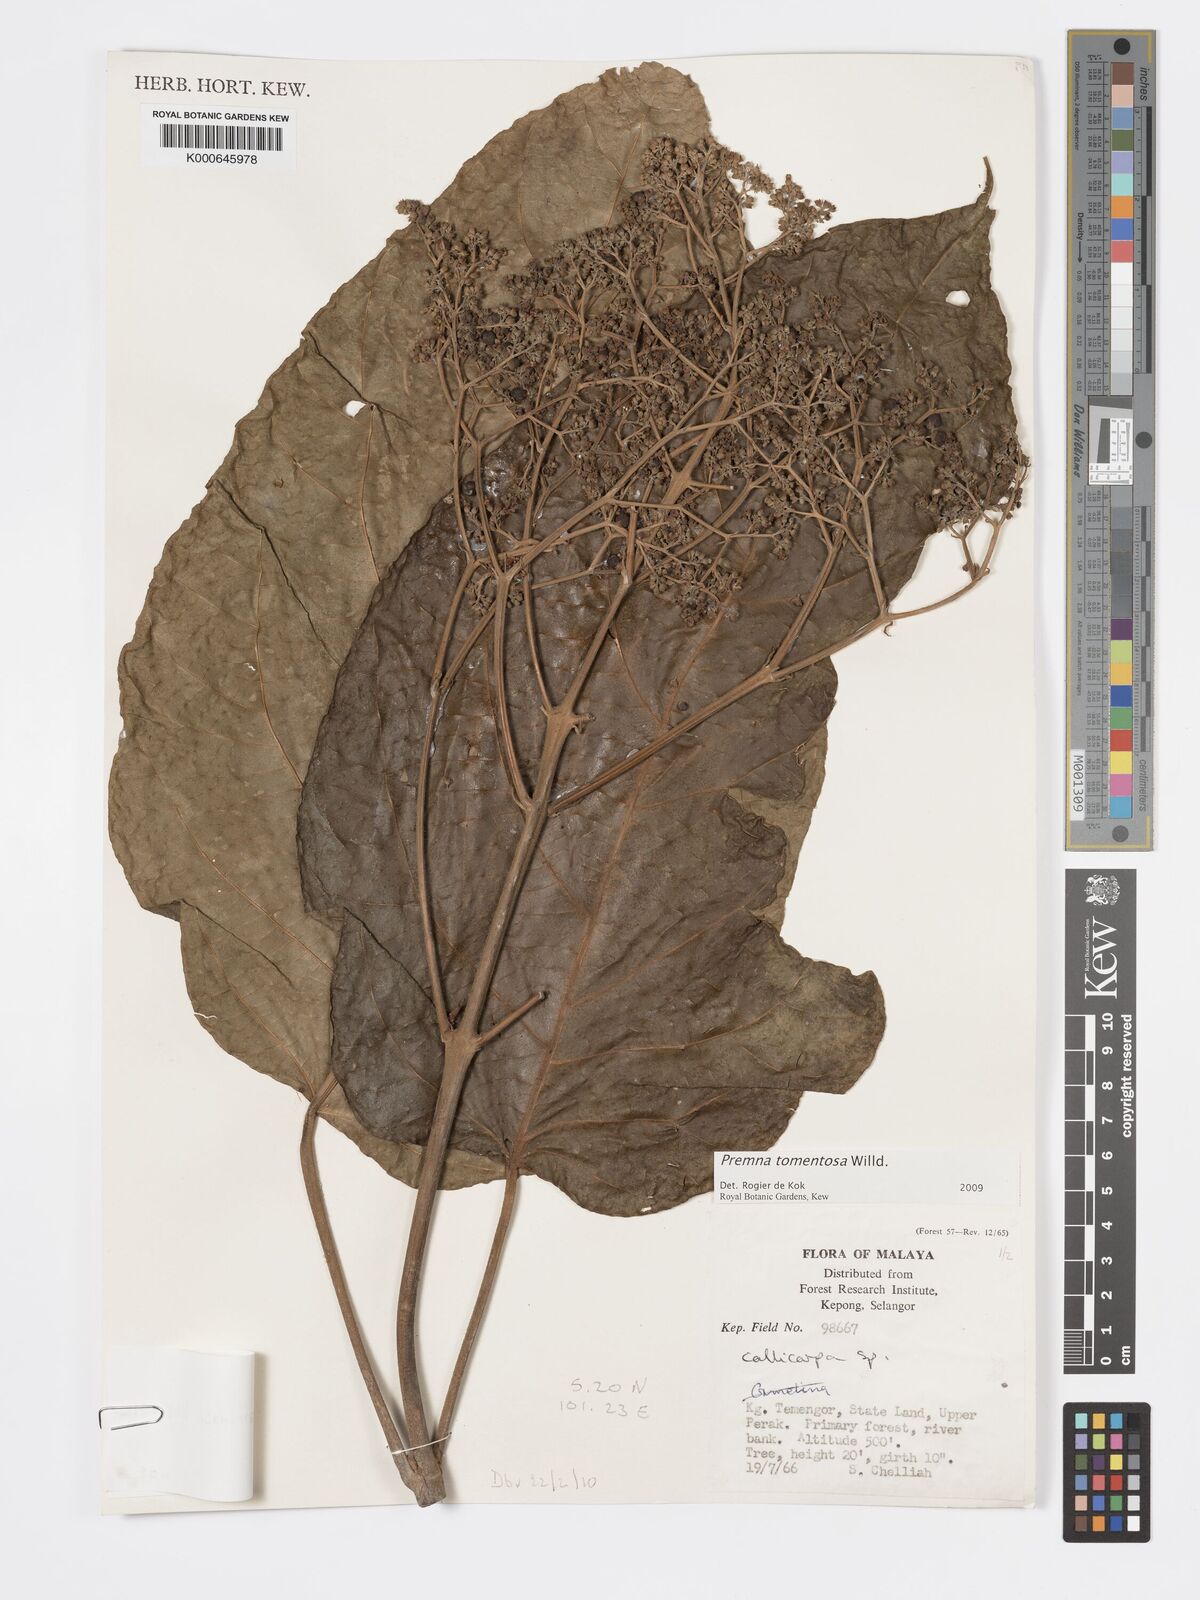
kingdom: Plantae
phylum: Tracheophyta
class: Magnoliopsida
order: Lamiales
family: Lamiaceae
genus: Premna
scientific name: Premna tomentosa
